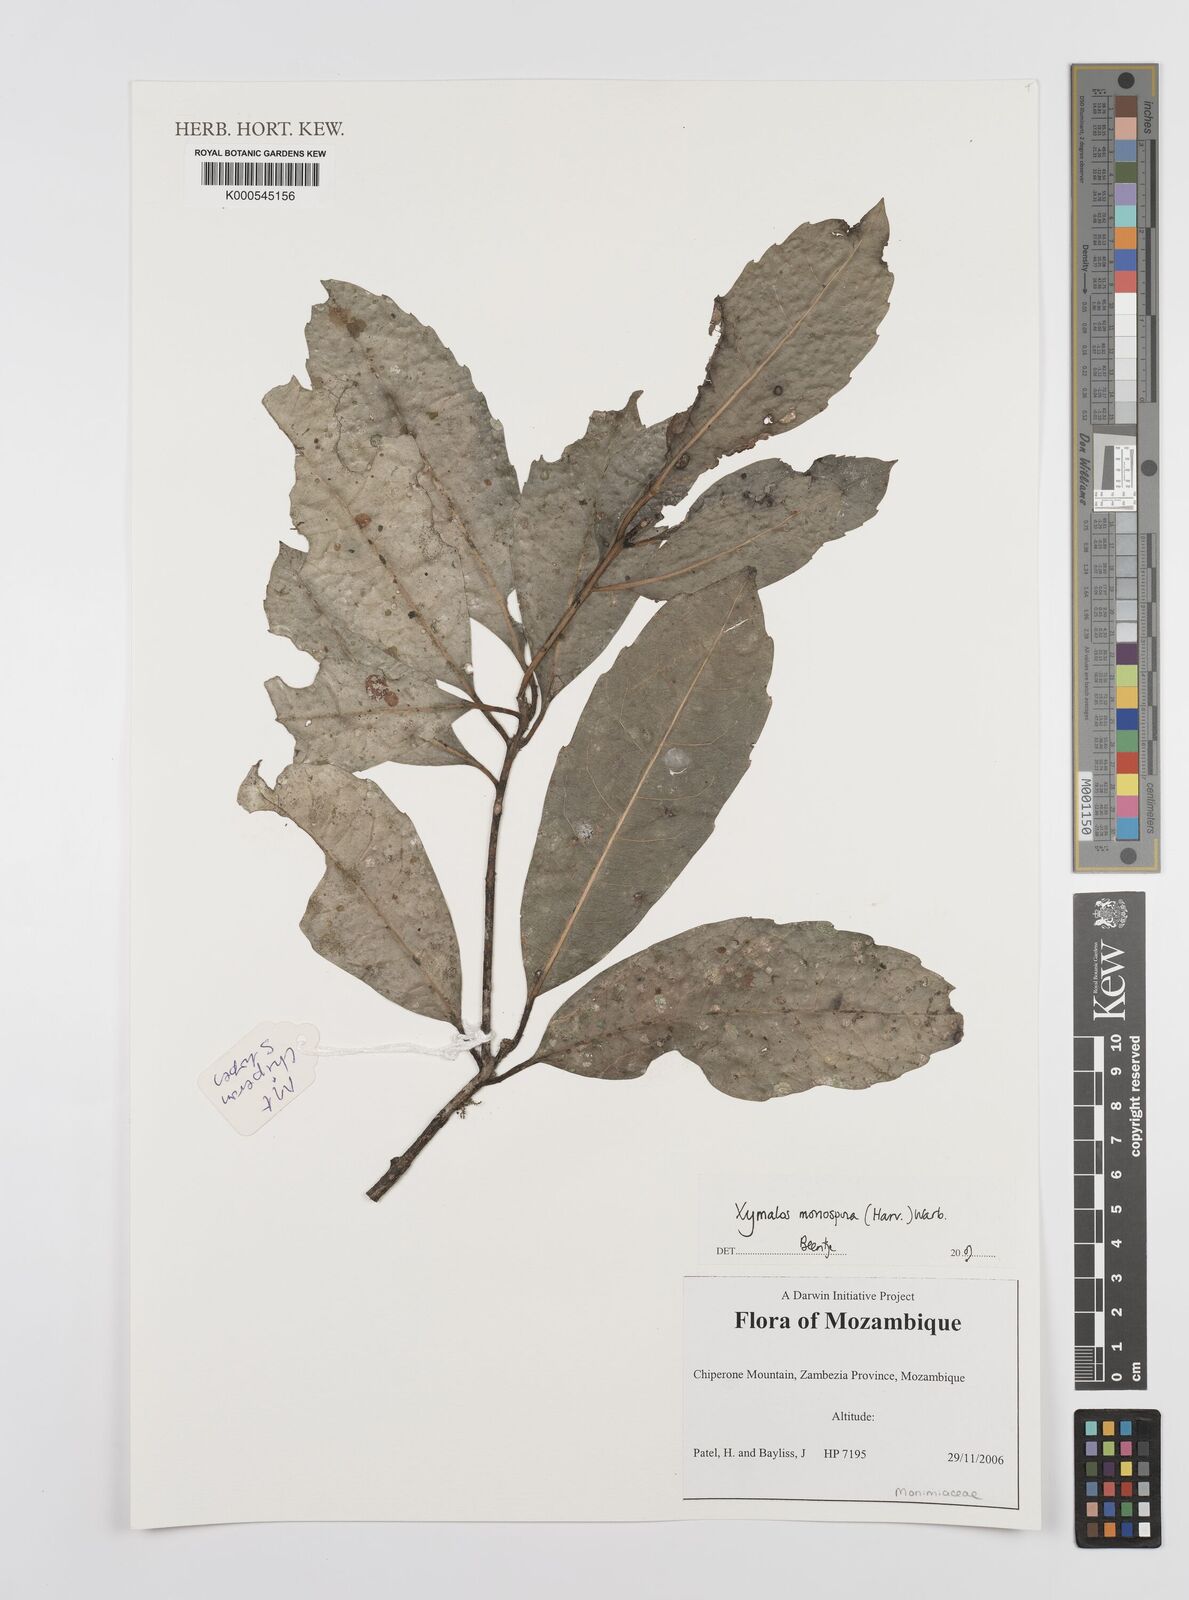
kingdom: Plantae
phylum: Tracheophyta
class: Magnoliopsida
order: Laurales
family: Monimiaceae
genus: Xymalos
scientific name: Xymalos
